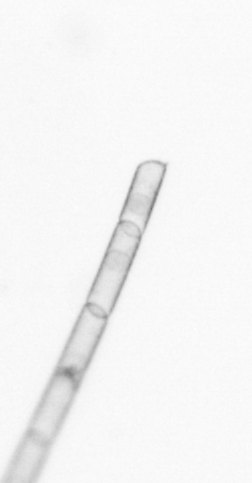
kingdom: Chromista
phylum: Ochrophyta
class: Bacillariophyceae
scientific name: Bacillariophyceae
